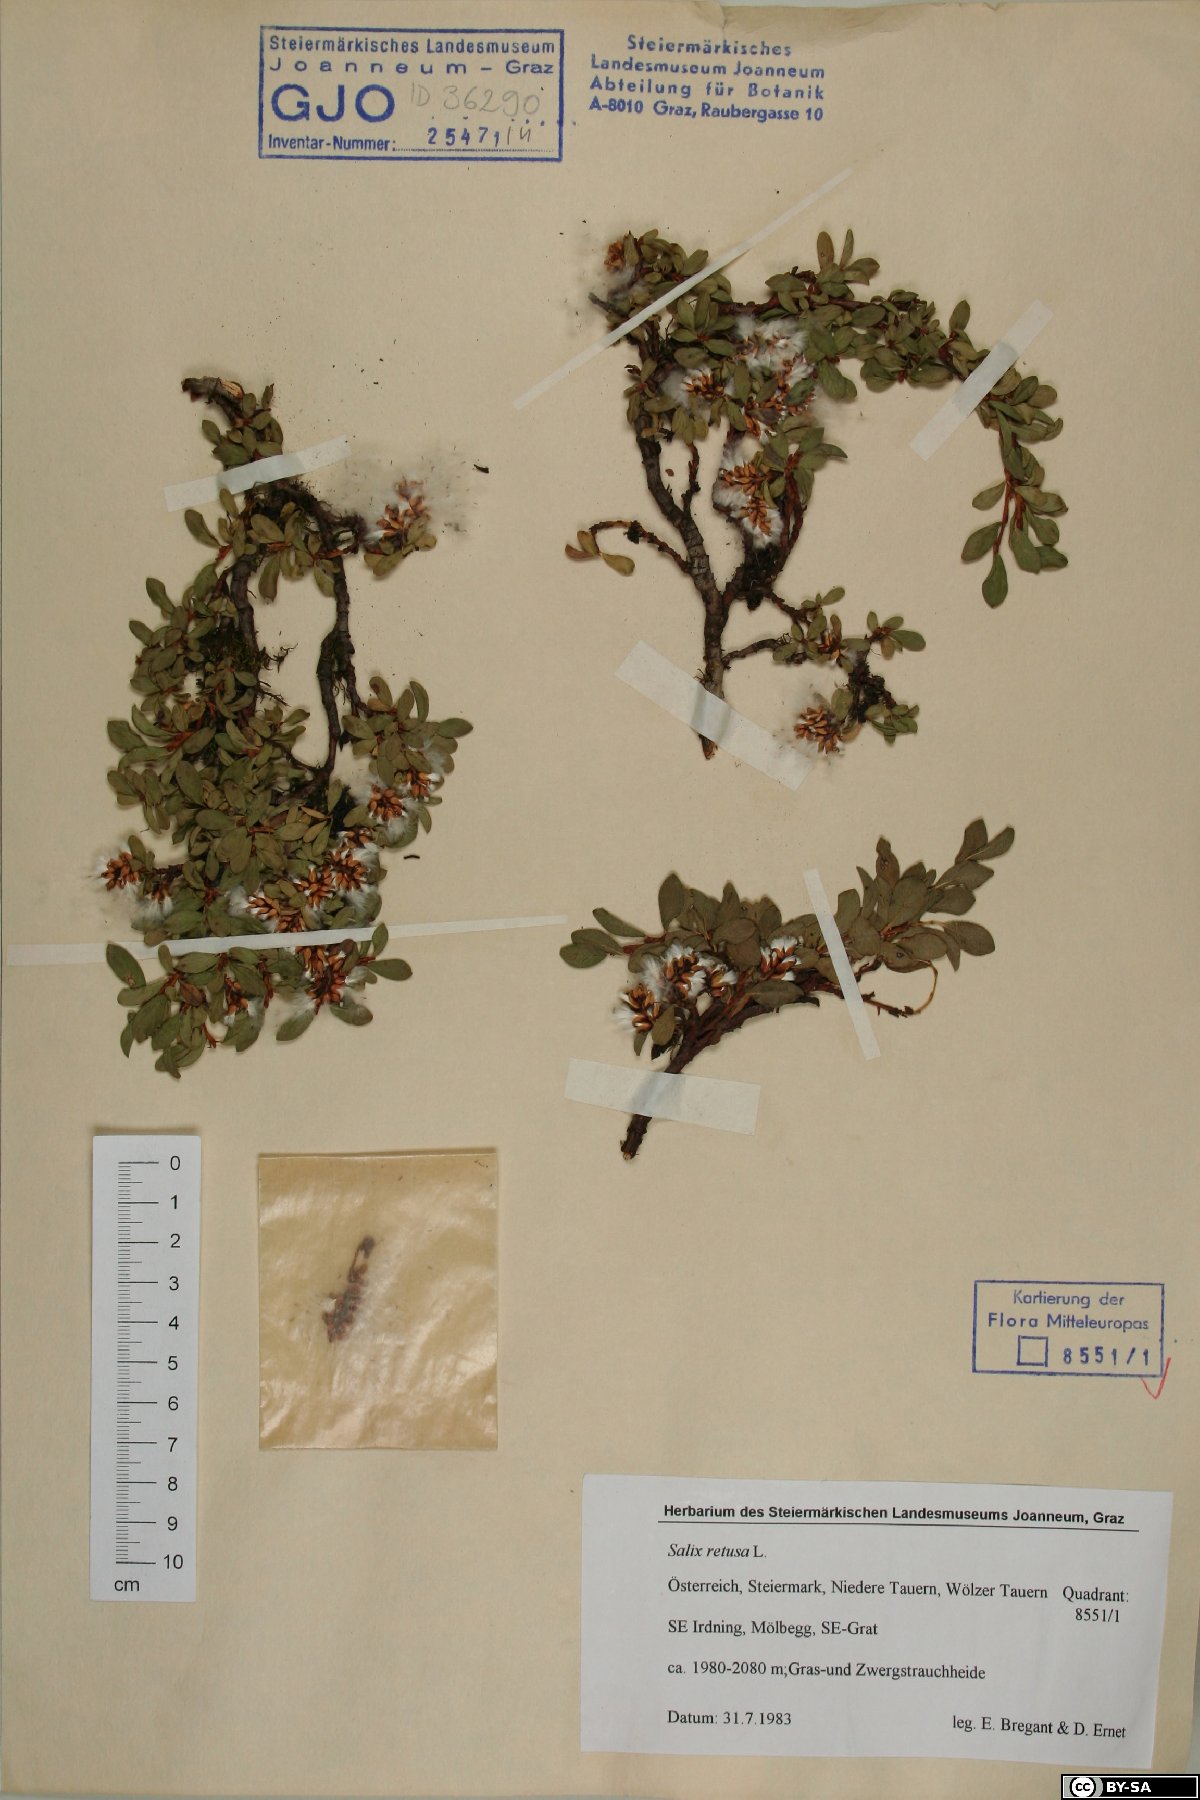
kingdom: Plantae
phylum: Tracheophyta
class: Magnoliopsida
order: Malpighiales
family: Salicaceae
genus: Salix
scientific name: Salix retusa
